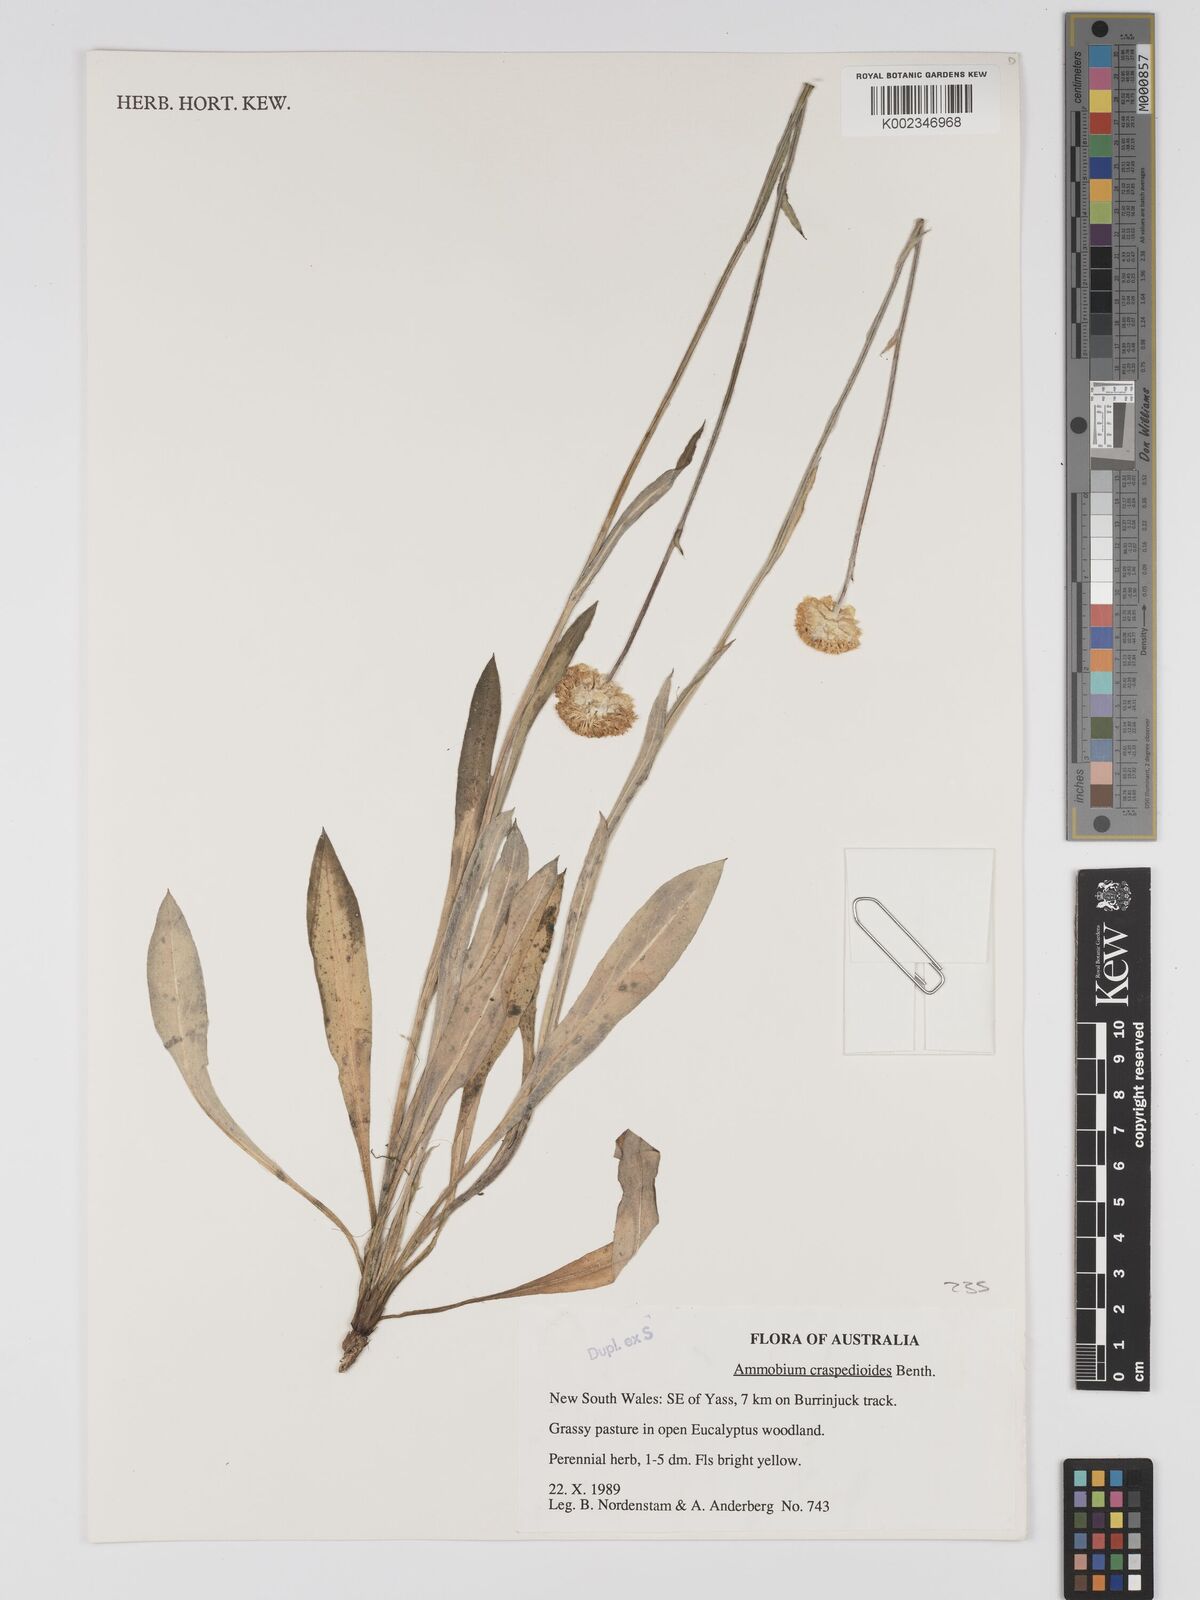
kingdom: Plantae
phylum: Tracheophyta
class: Magnoliopsida
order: Asterales
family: Asteraceae
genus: Ammobium
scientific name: Ammobium craspedioides
